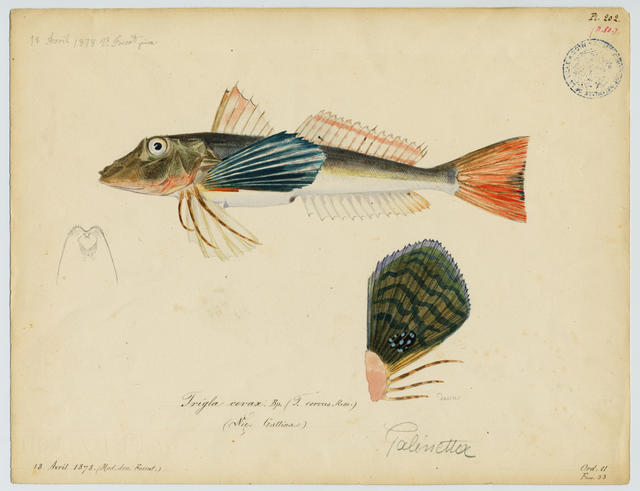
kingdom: Animalia
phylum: Chordata
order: Scorpaeniformes
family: Triglidae
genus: Chelidonichthys
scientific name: Chelidonichthys lucerna
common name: Tub gurnard
